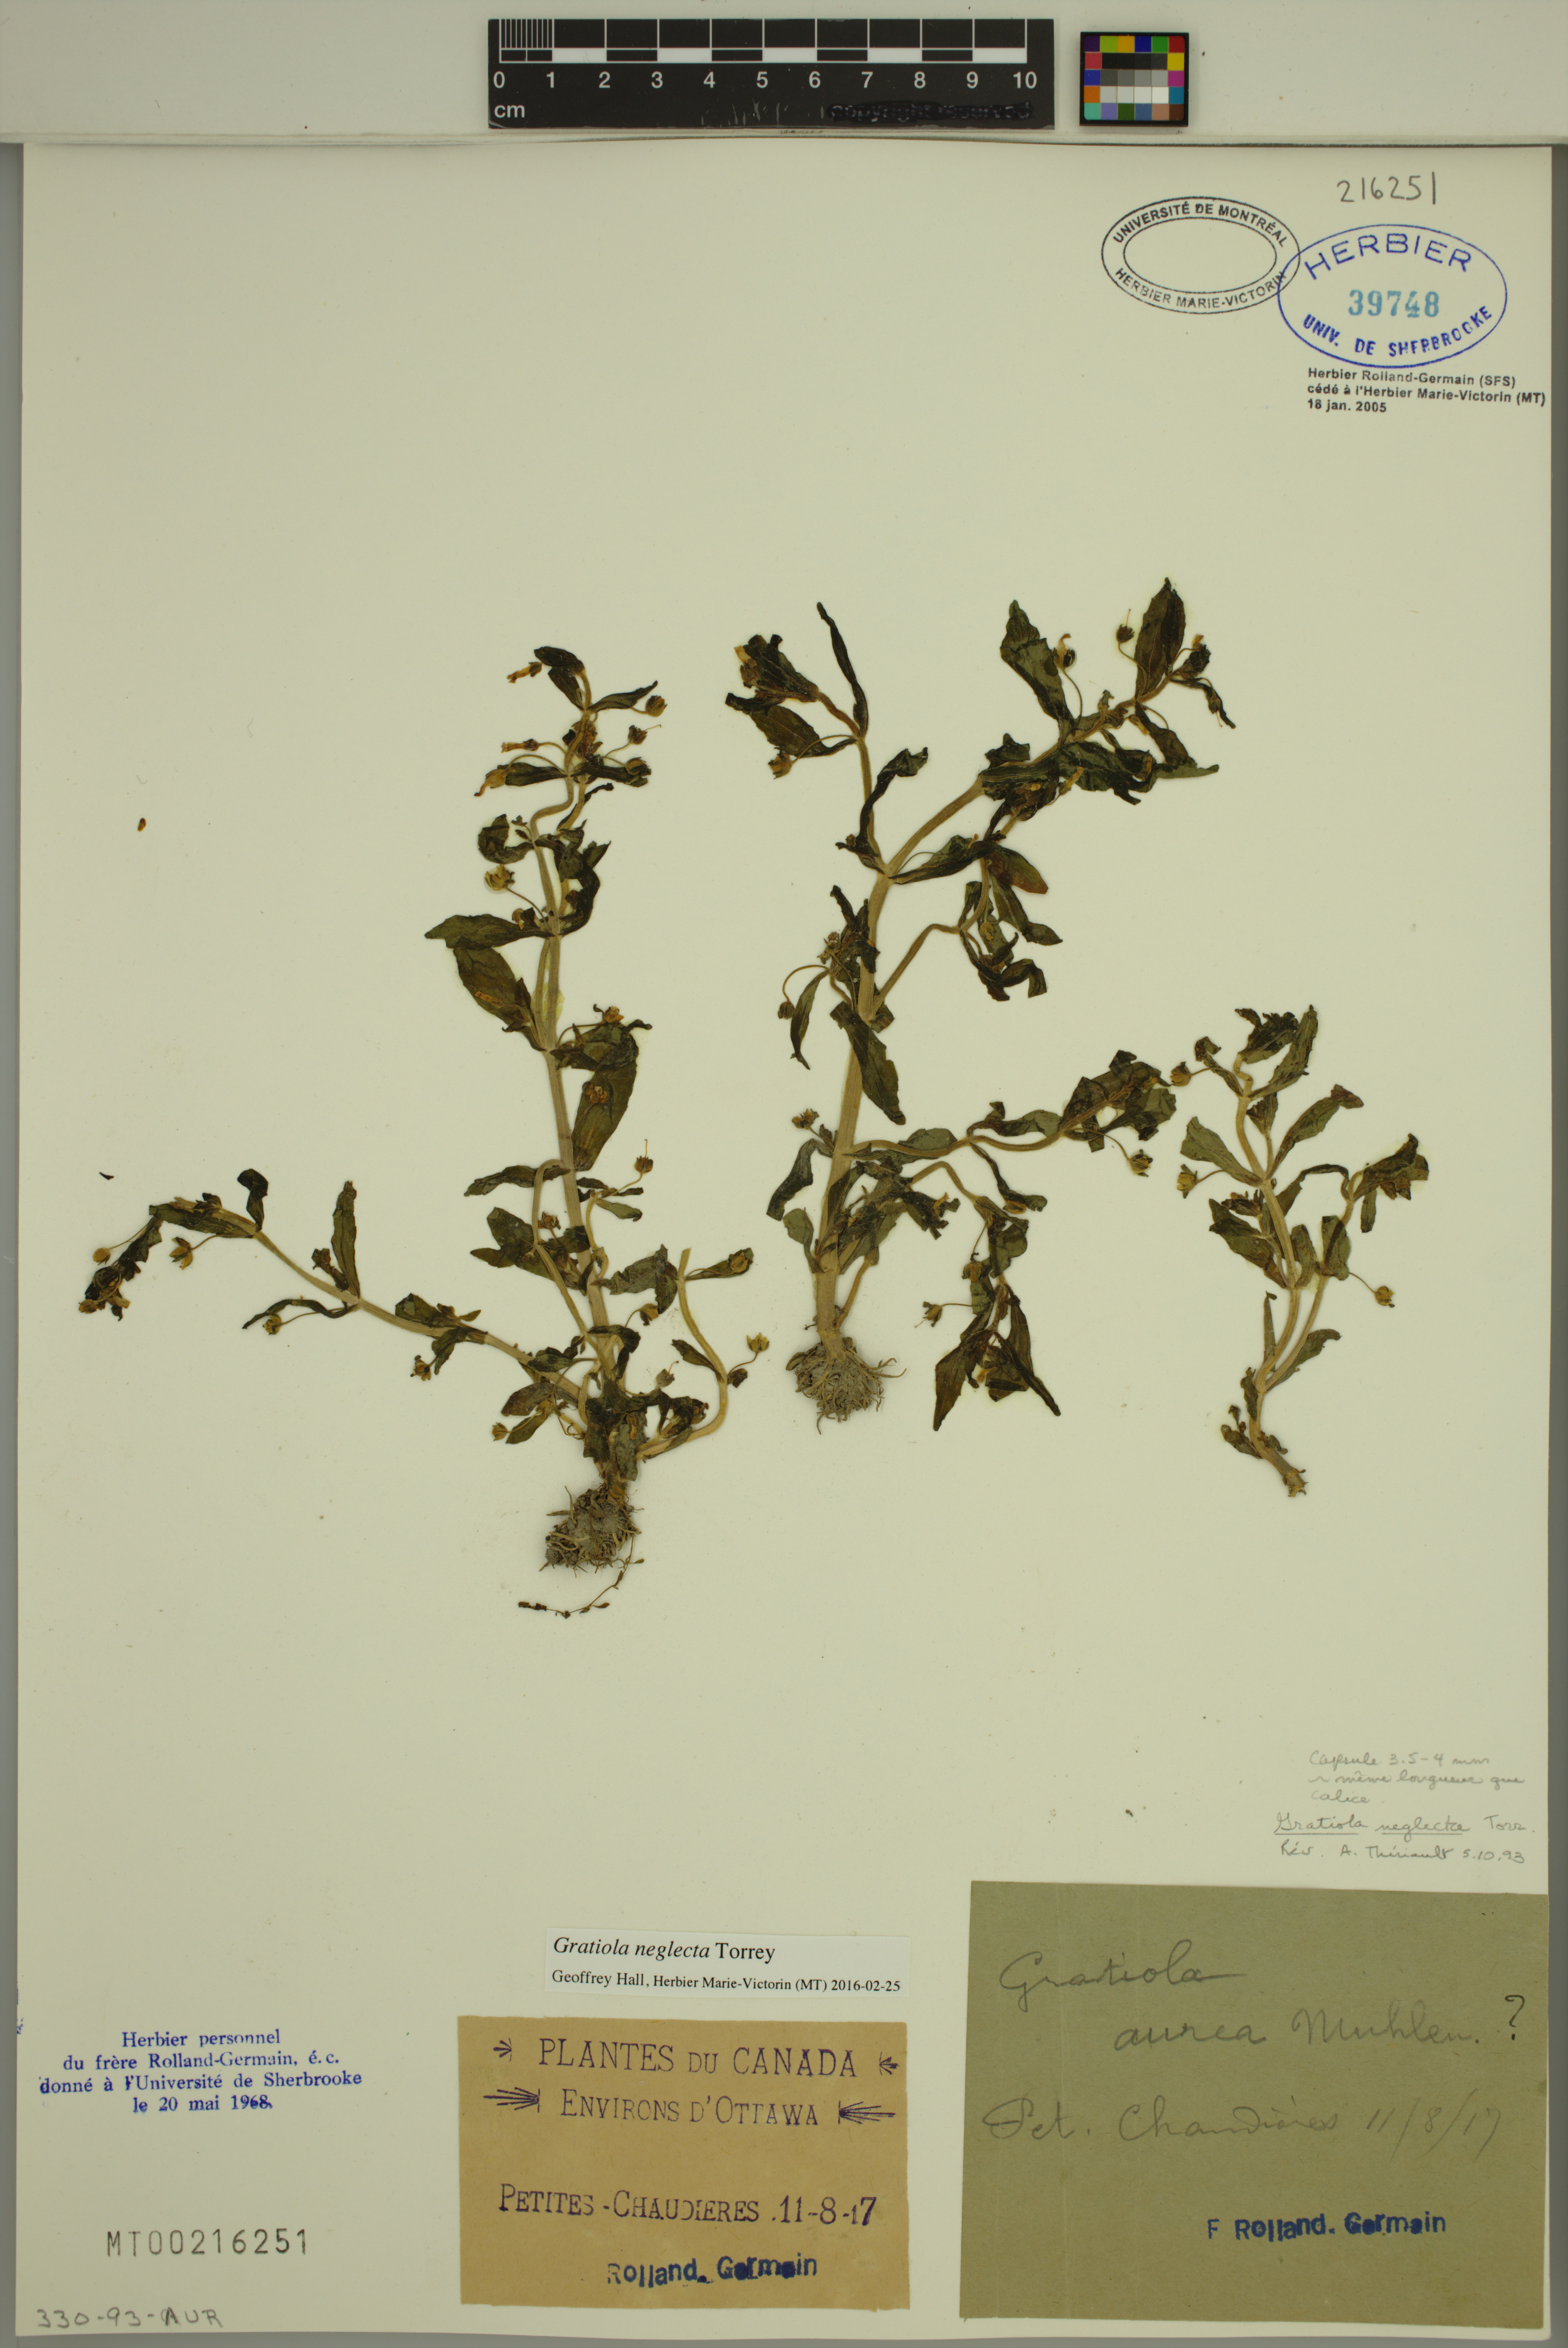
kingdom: Plantae
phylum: Tracheophyta
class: Magnoliopsida
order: Lamiales
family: Plantaginaceae
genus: Gratiola
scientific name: Gratiola neglecta
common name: American hedge-hyssop
